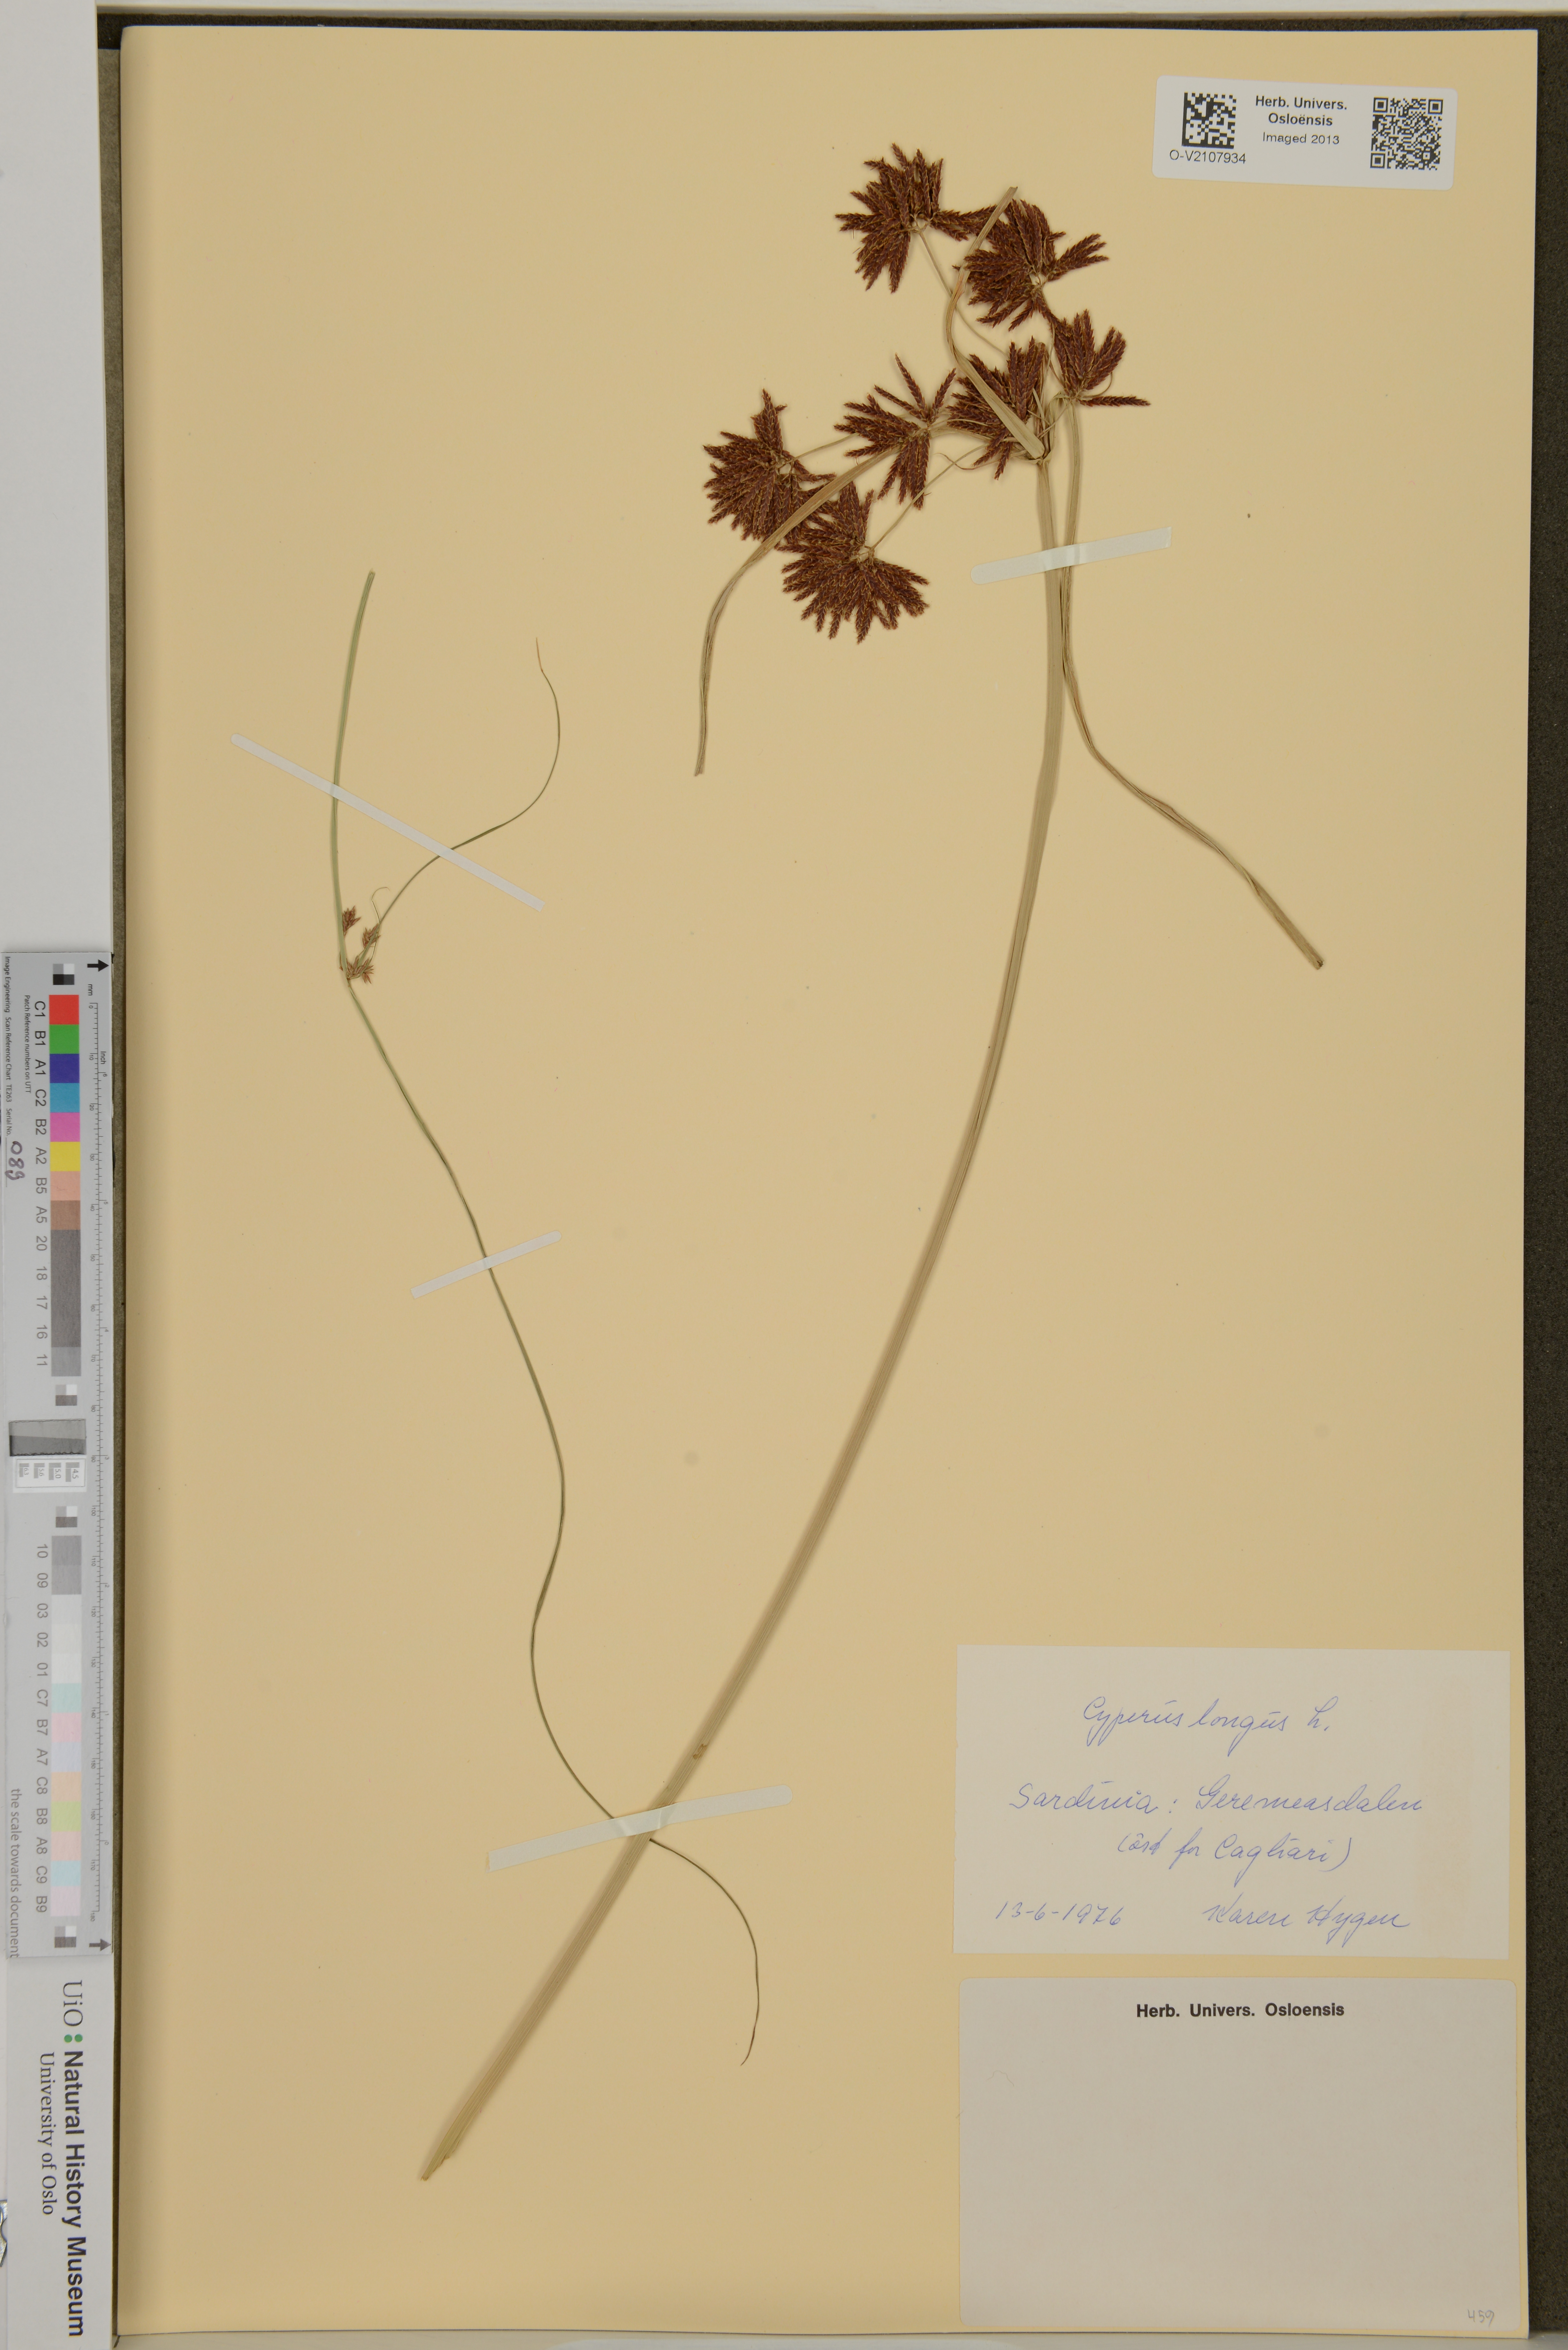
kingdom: Plantae
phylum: Tracheophyta
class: Liliopsida
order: Poales
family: Cyperaceae
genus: Cyperus
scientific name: Cyperus longus
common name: Galingale
